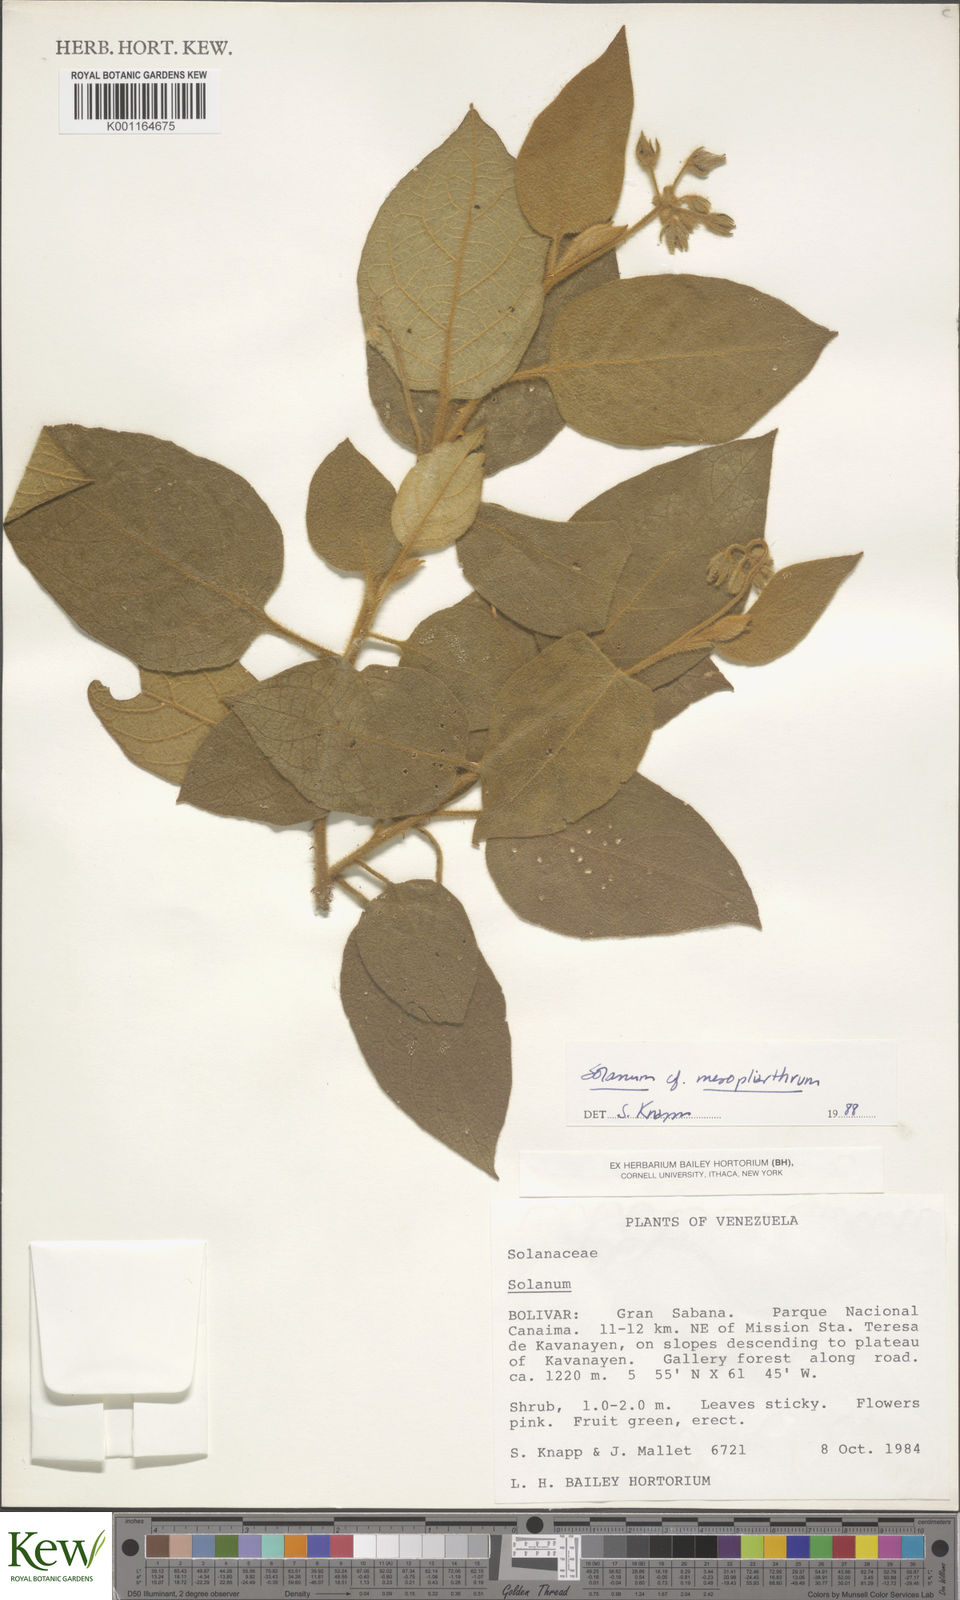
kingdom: Plantae
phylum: Tracheophyta
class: Magnoliopsida
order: Solanales
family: Solanaceae
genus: Solanum
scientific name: Solanum velutinum
